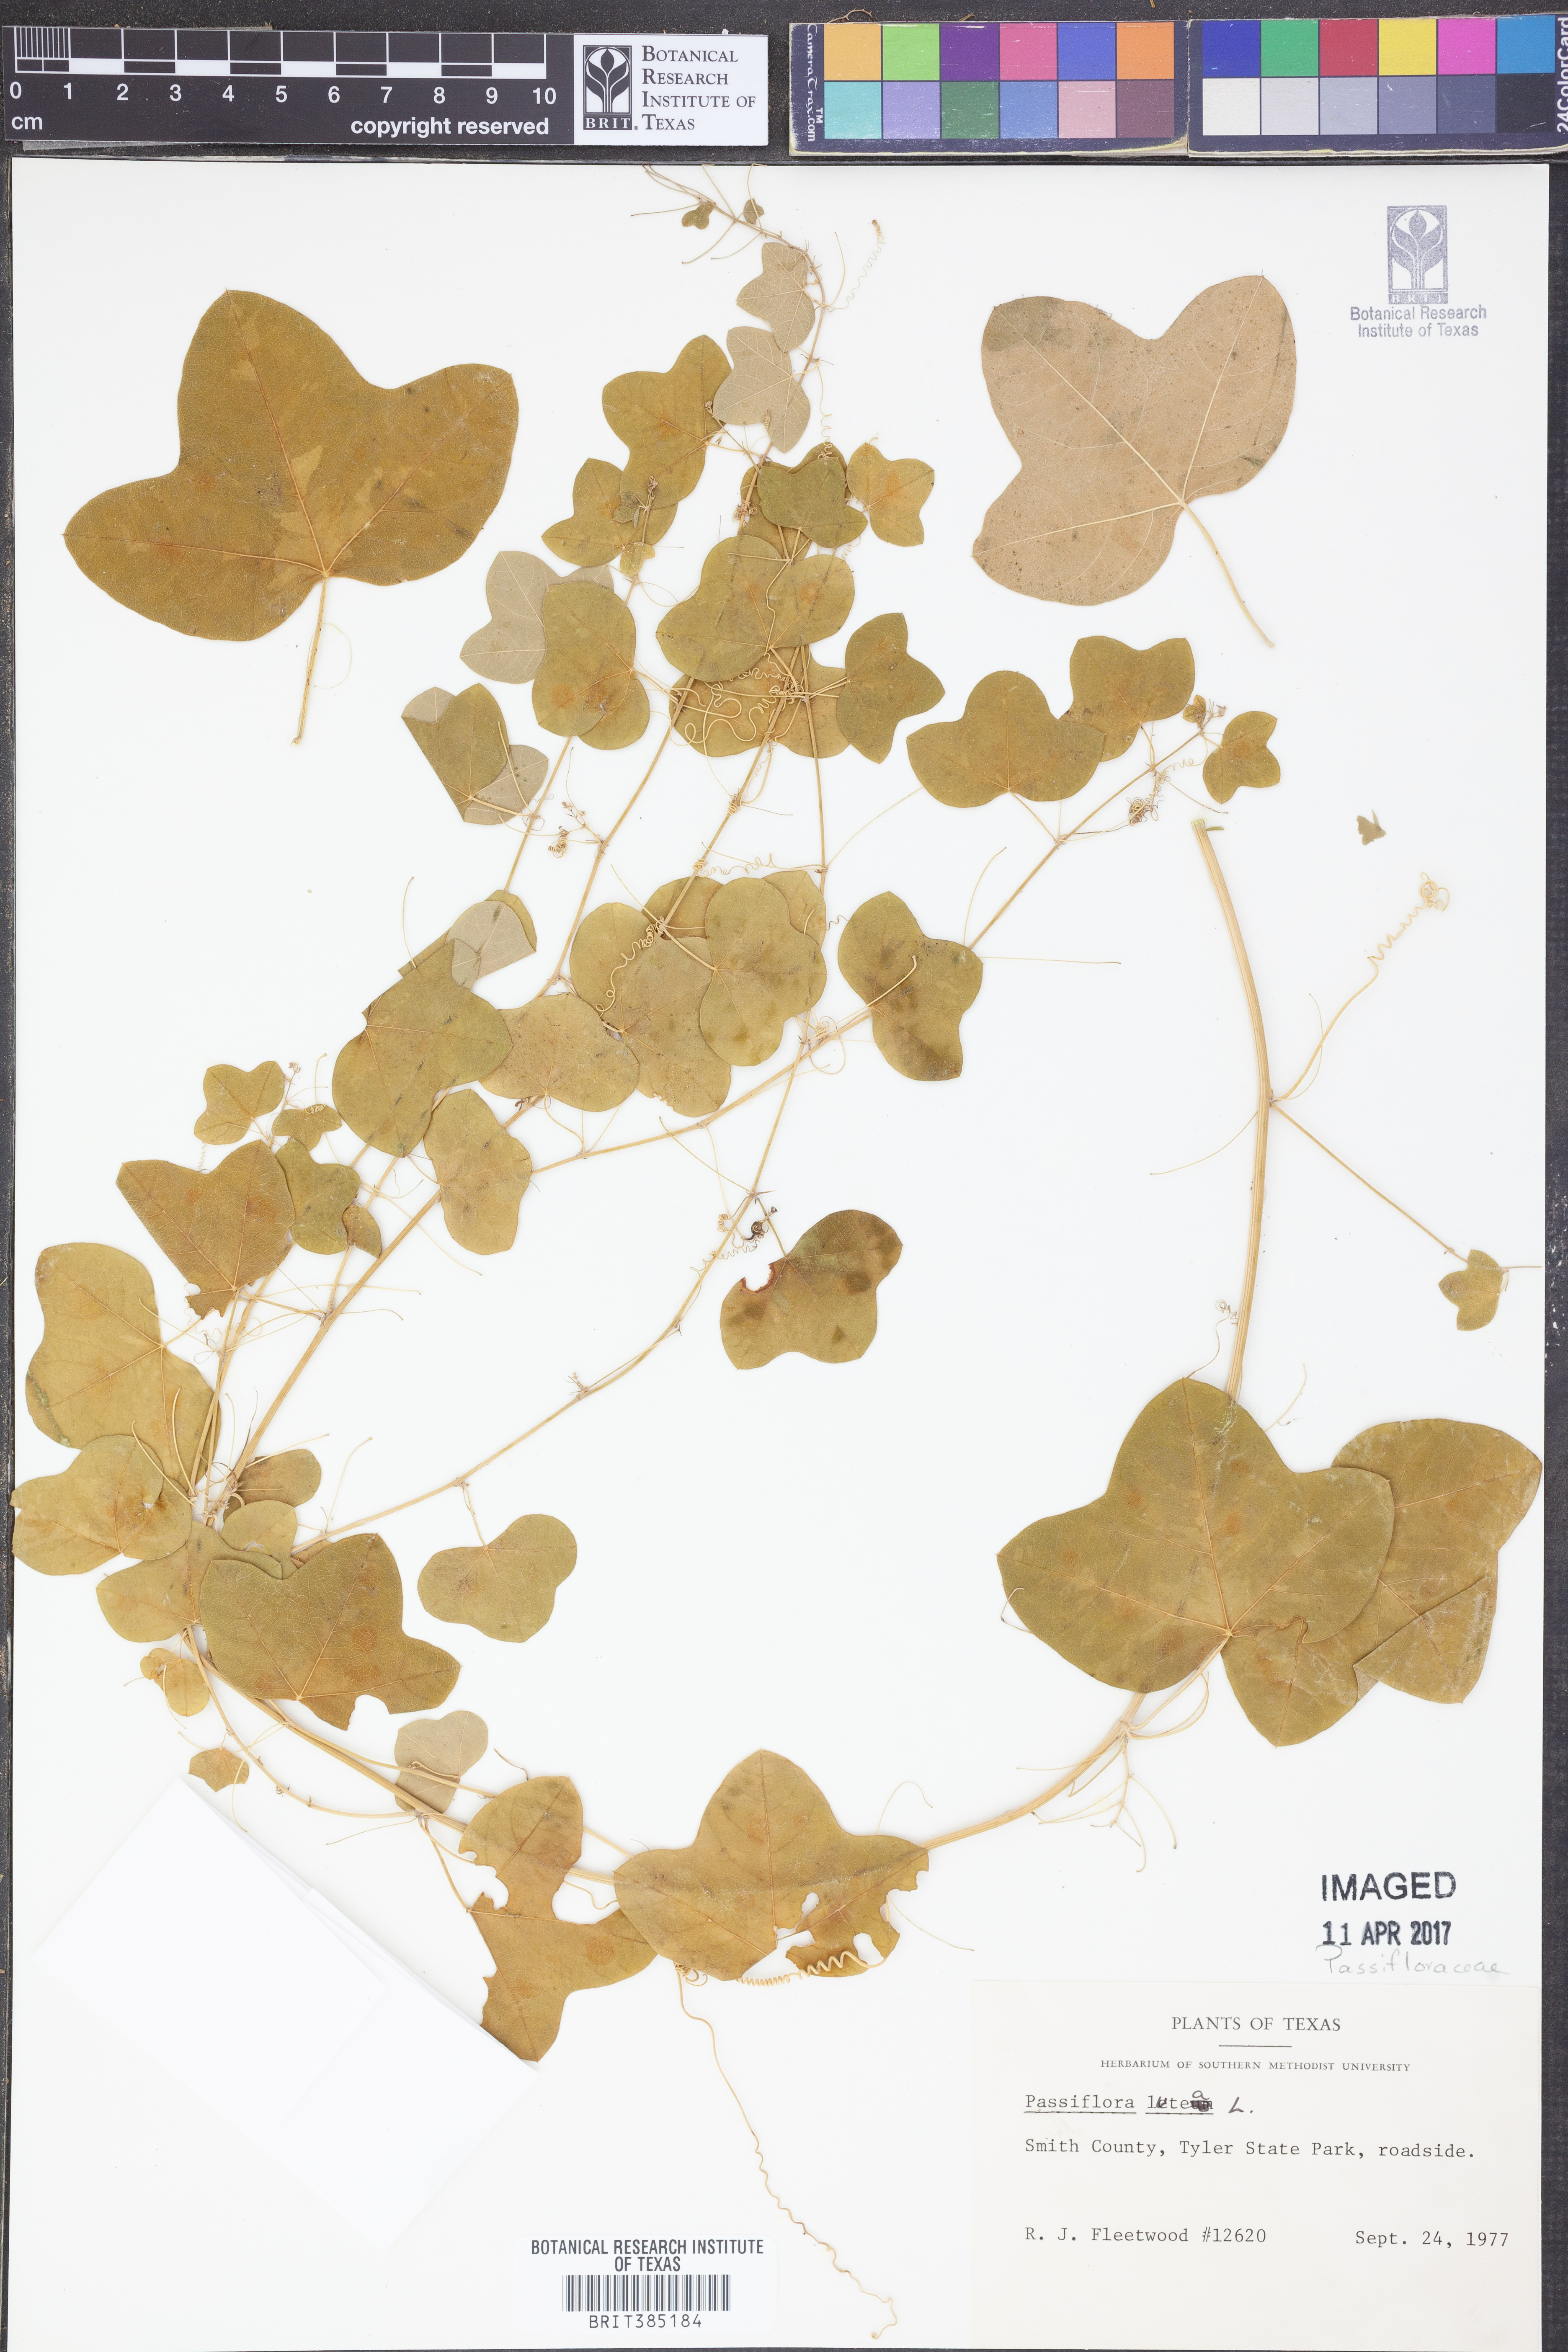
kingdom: Plantae
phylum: Tracheophyta
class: Magnoliopsida
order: Malpighiales
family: Passifloraceae
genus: Passiflora
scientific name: Passiflora lutea
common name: Yellow passionflower
